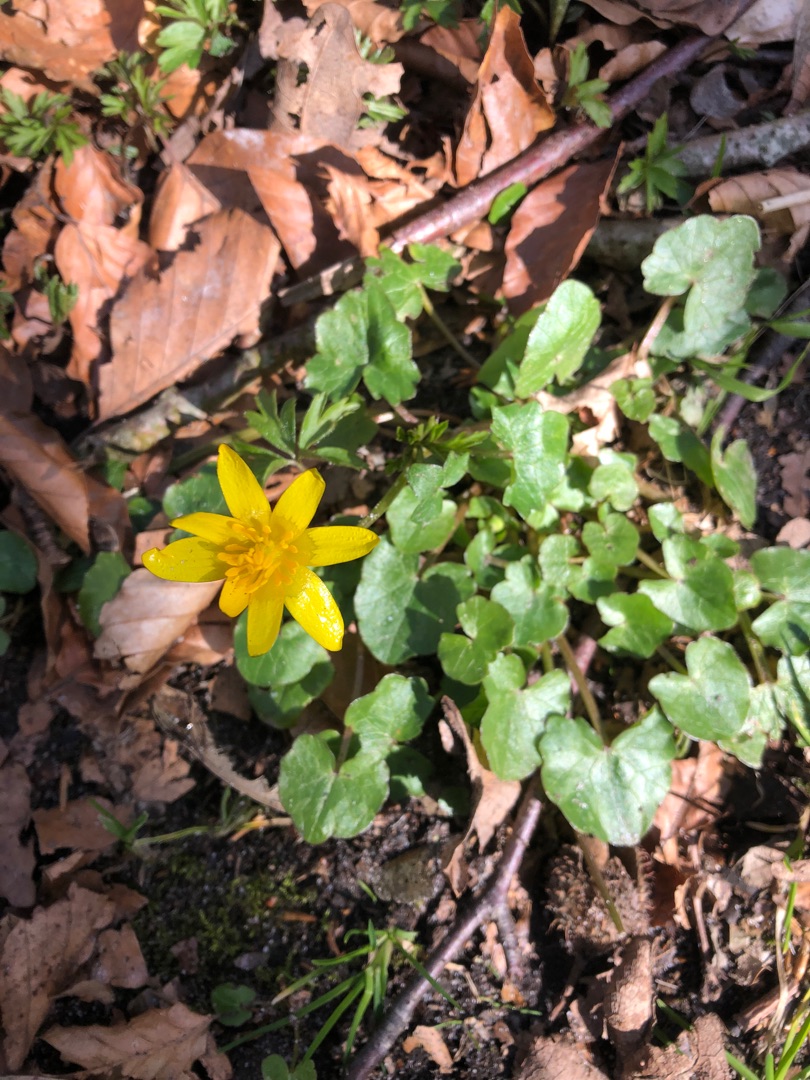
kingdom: Plantae
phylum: Tracheophyta
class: Magnoliopsida
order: Ranunculales
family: Ranunculaceae
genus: Ficaria
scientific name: Ficaria verna
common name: Vorterod
